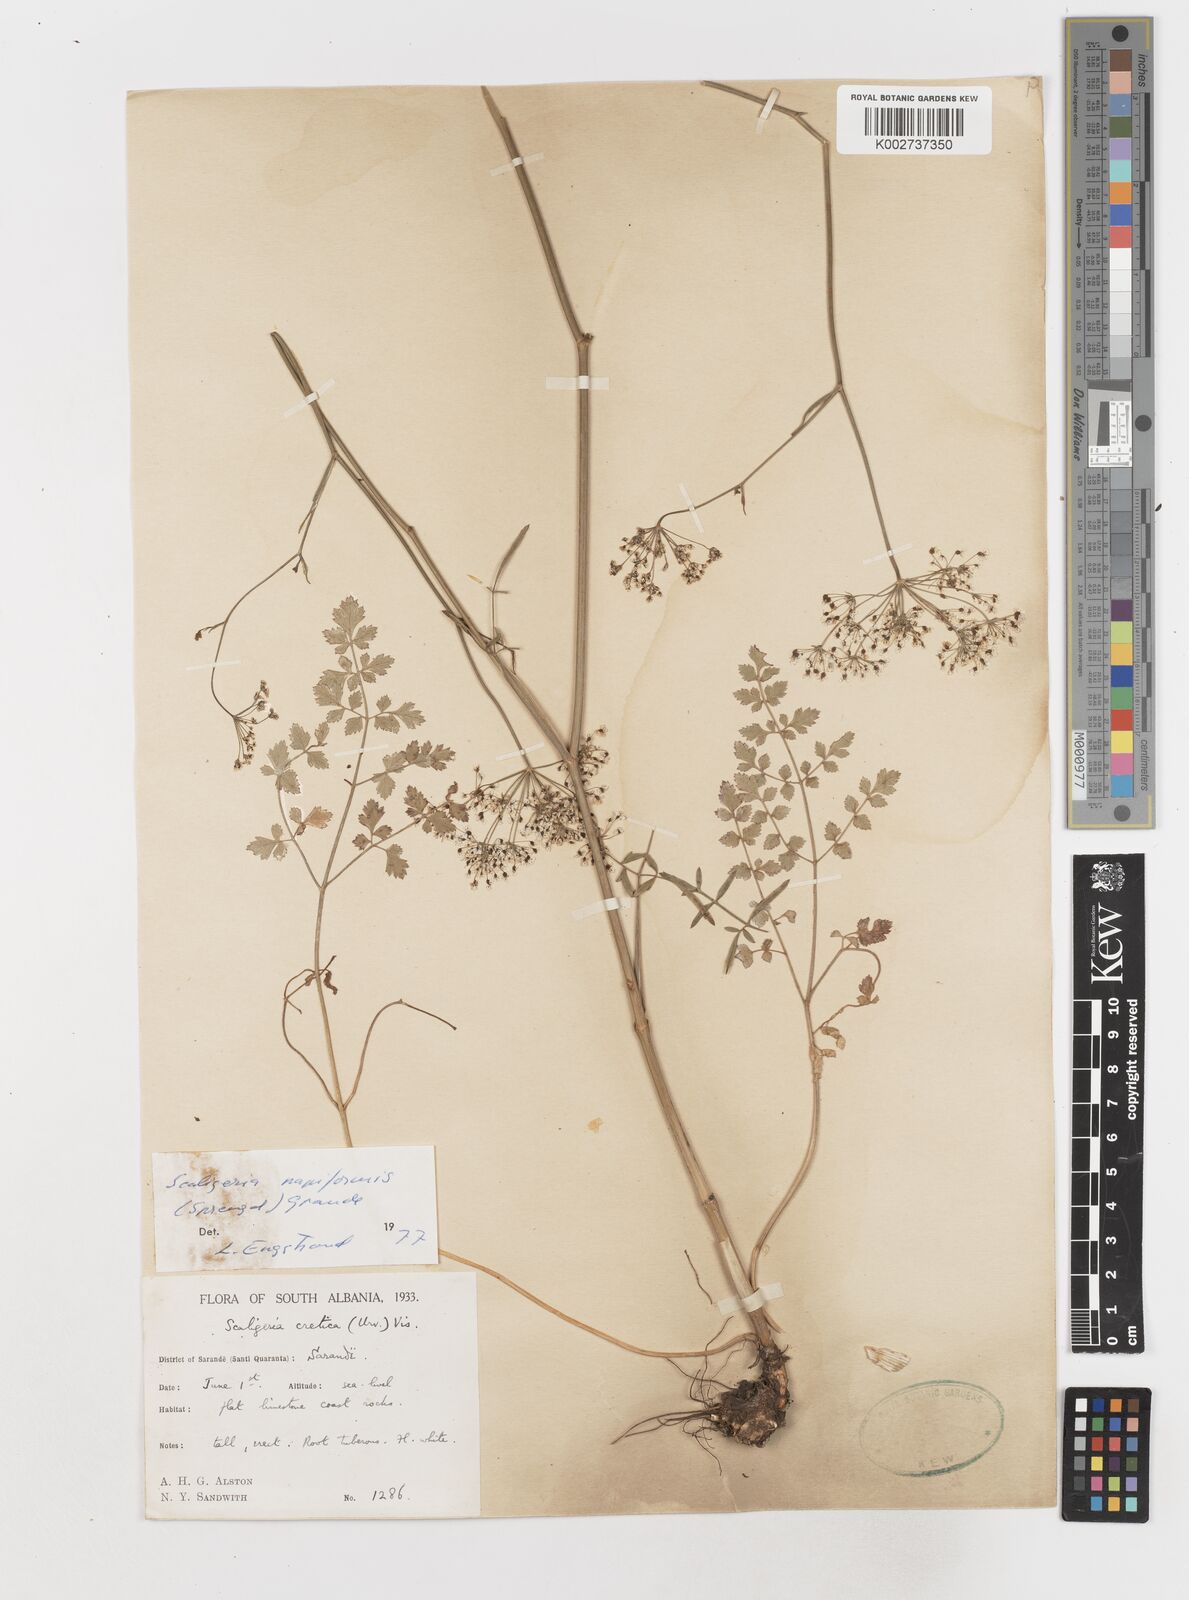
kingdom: Plantae
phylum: Tracheophyta
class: Magnoliopsida
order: Apiales
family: Apiaceae
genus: Scaligeria
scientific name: Scaligeria napiformis
